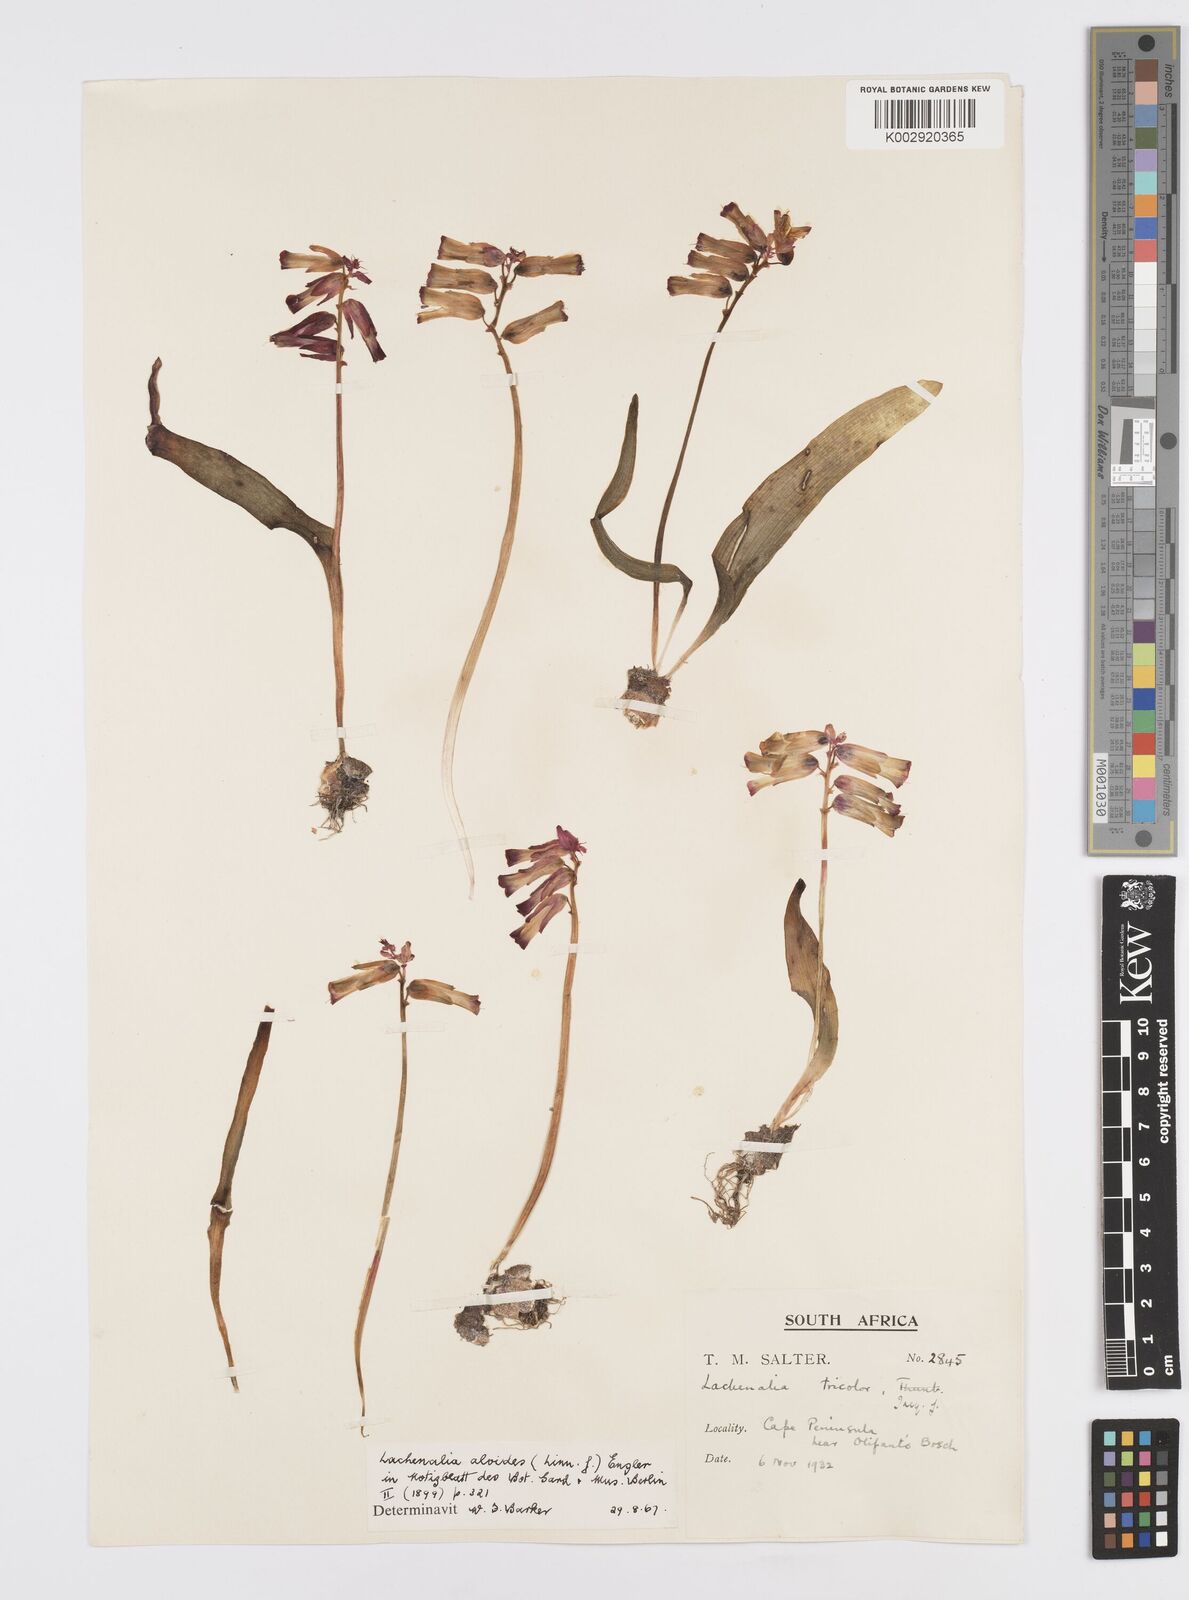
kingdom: Plantae
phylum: Tracheophyta
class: Liliopsida
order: Asparagales
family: Asparagaceae
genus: Lachenalia
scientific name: Lachenalia aloides
